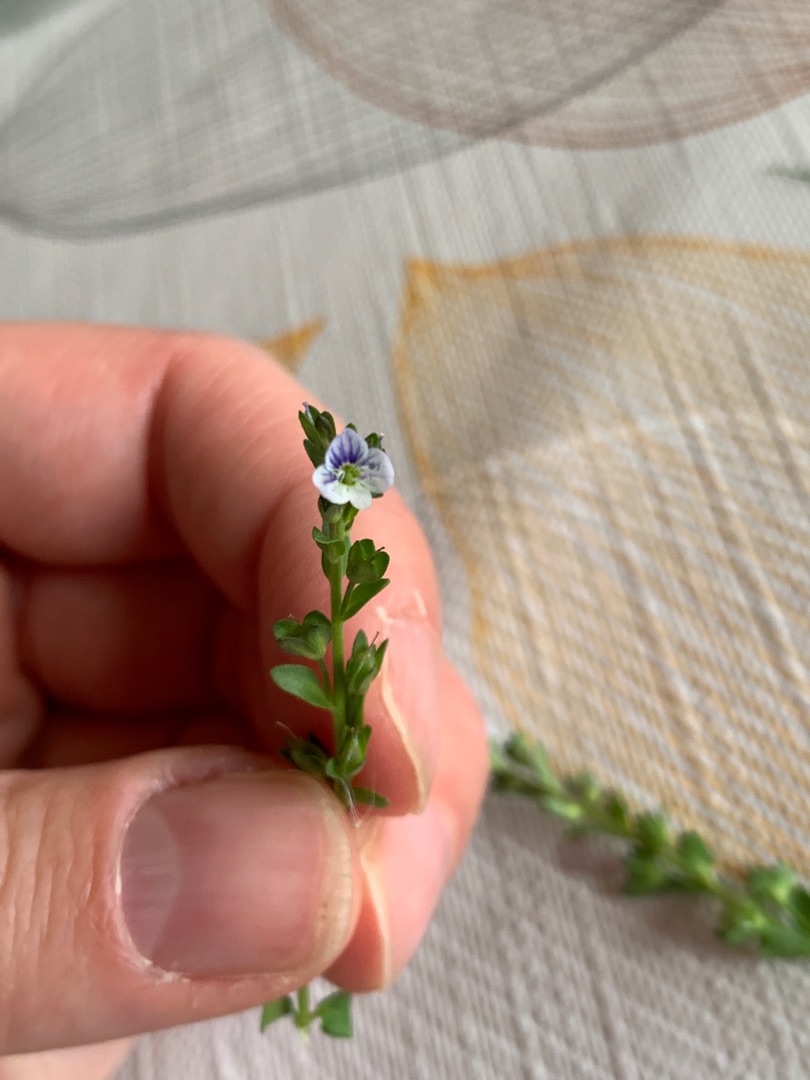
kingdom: Plantae
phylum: Tracheophyta
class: Magnoliopsida
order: Lamiales
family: Plantaginaceae
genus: Veronica
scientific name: Veronica serpyllifolia
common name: Glat ærenpris
